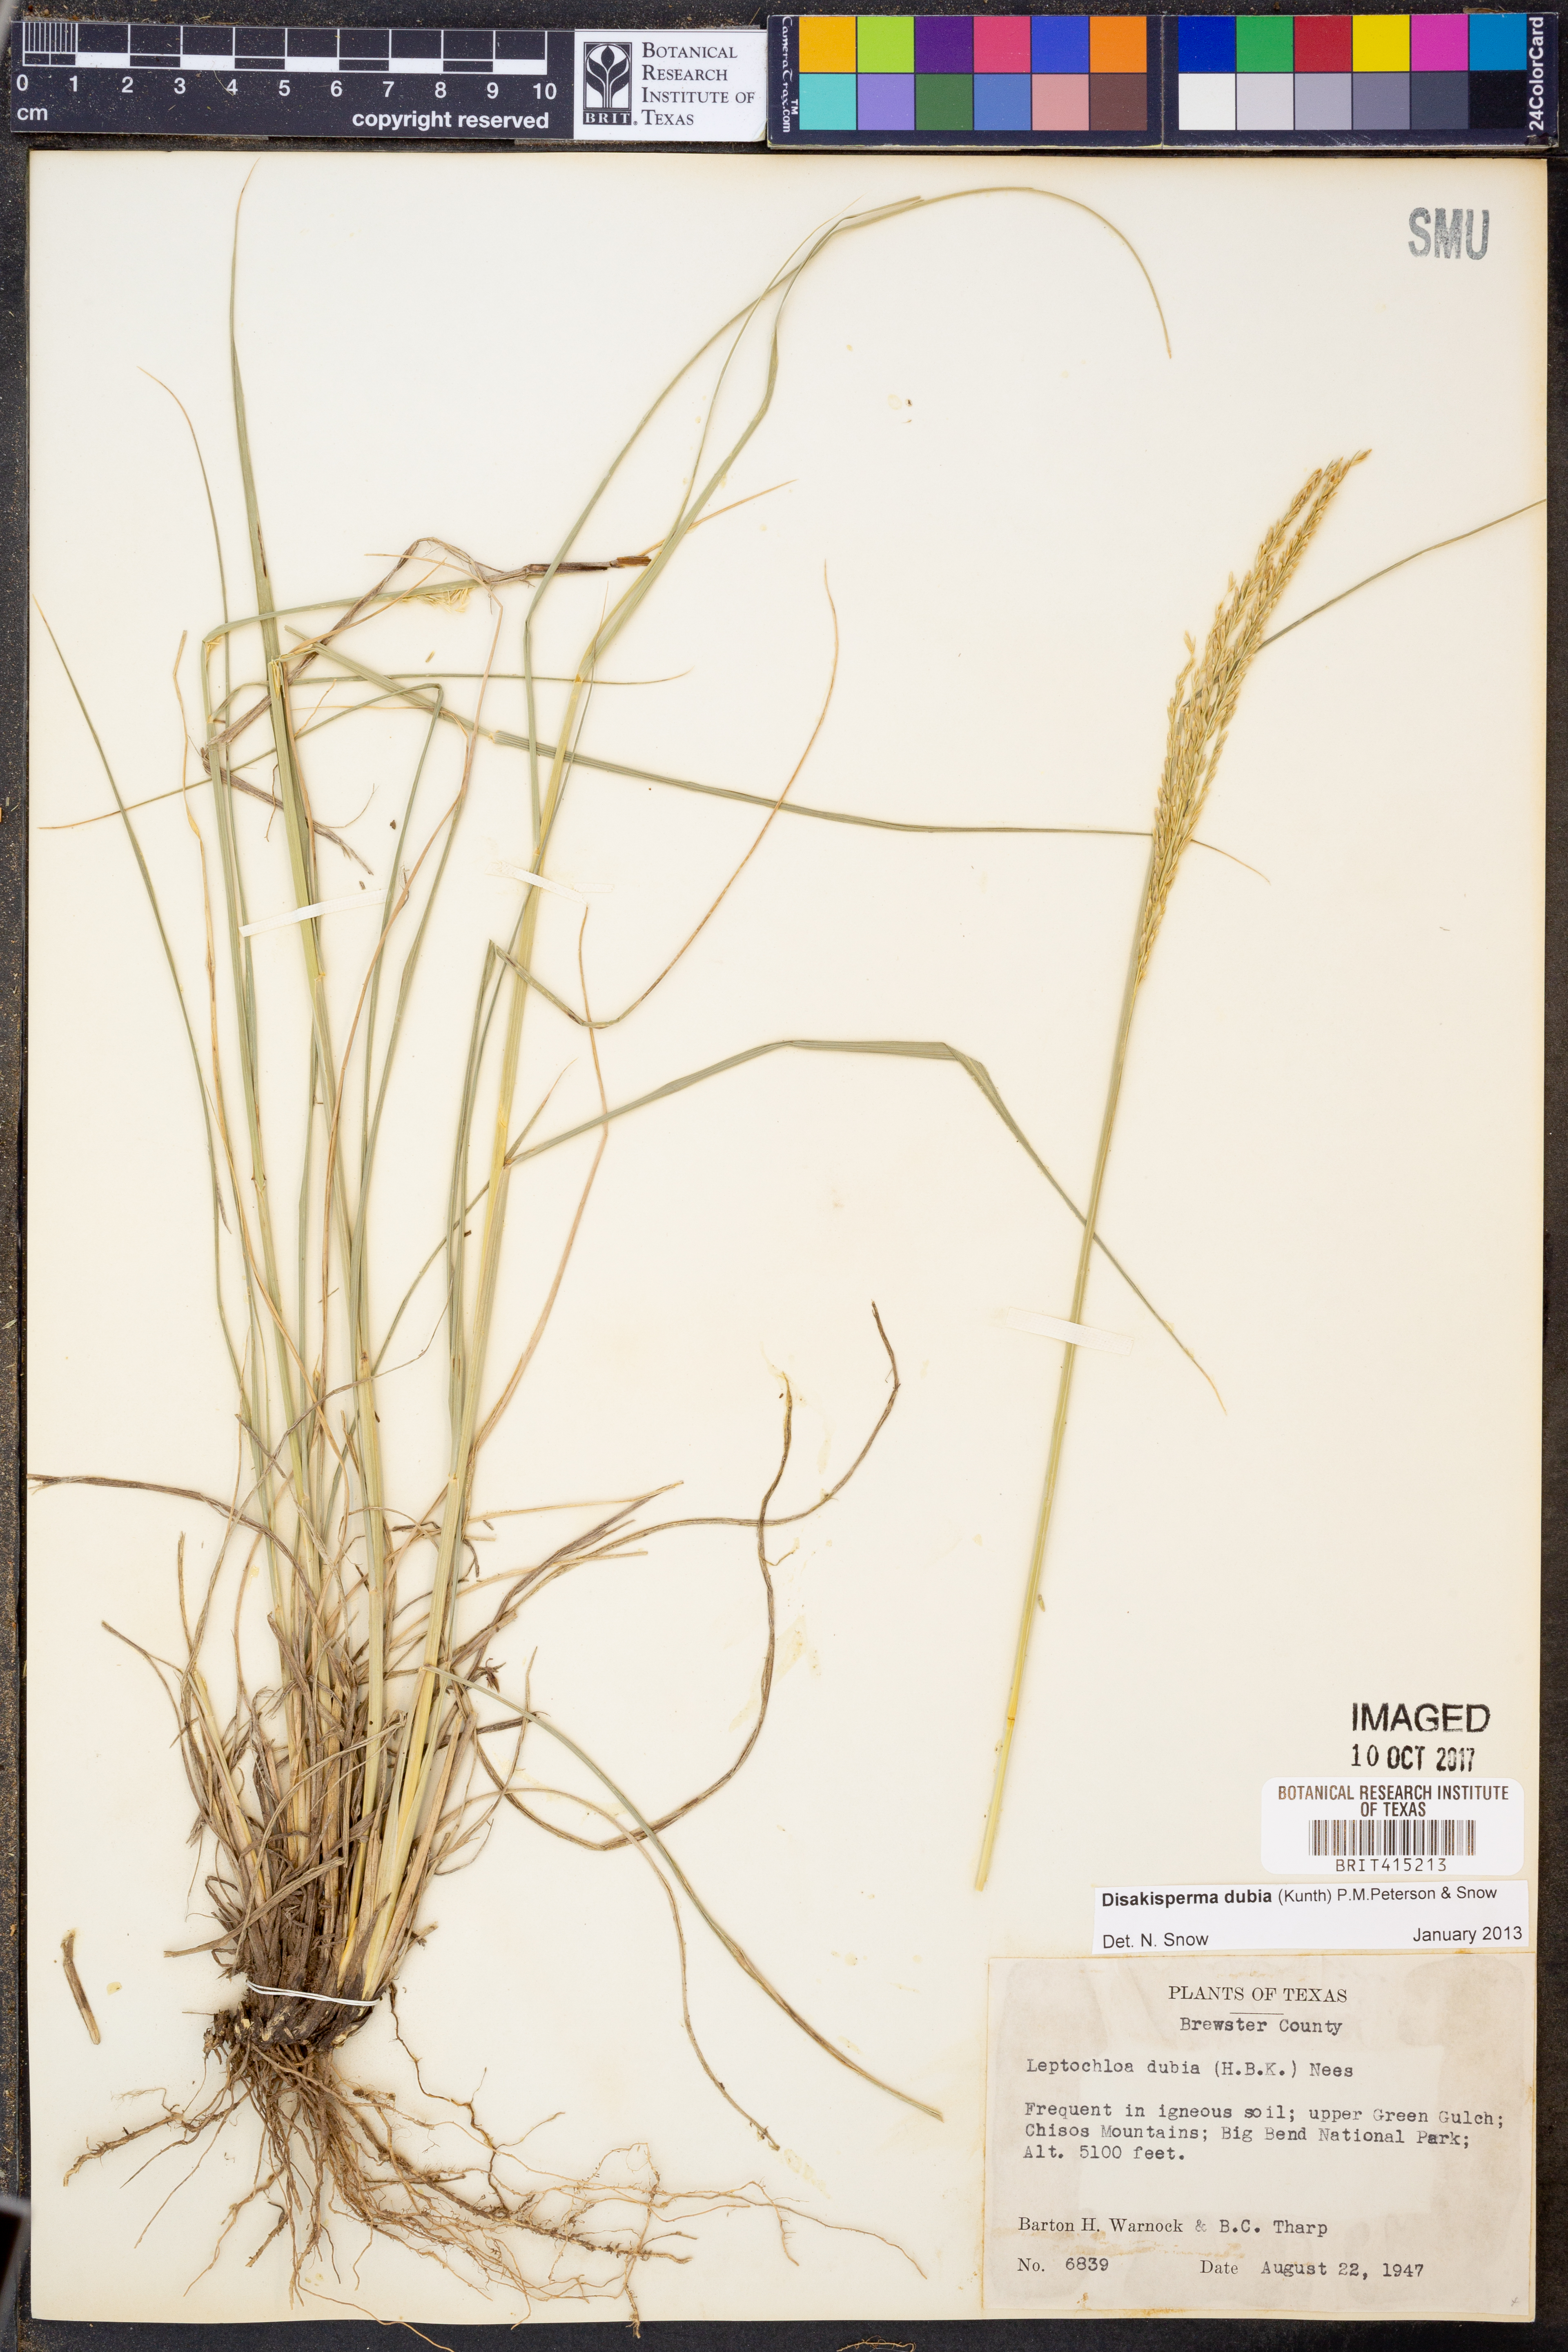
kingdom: Plantae
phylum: Tracheophyta
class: Liliopsida
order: Poales
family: Poaceae
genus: Disakisperma
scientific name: Disakisperma dubium
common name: Green sprangletop
